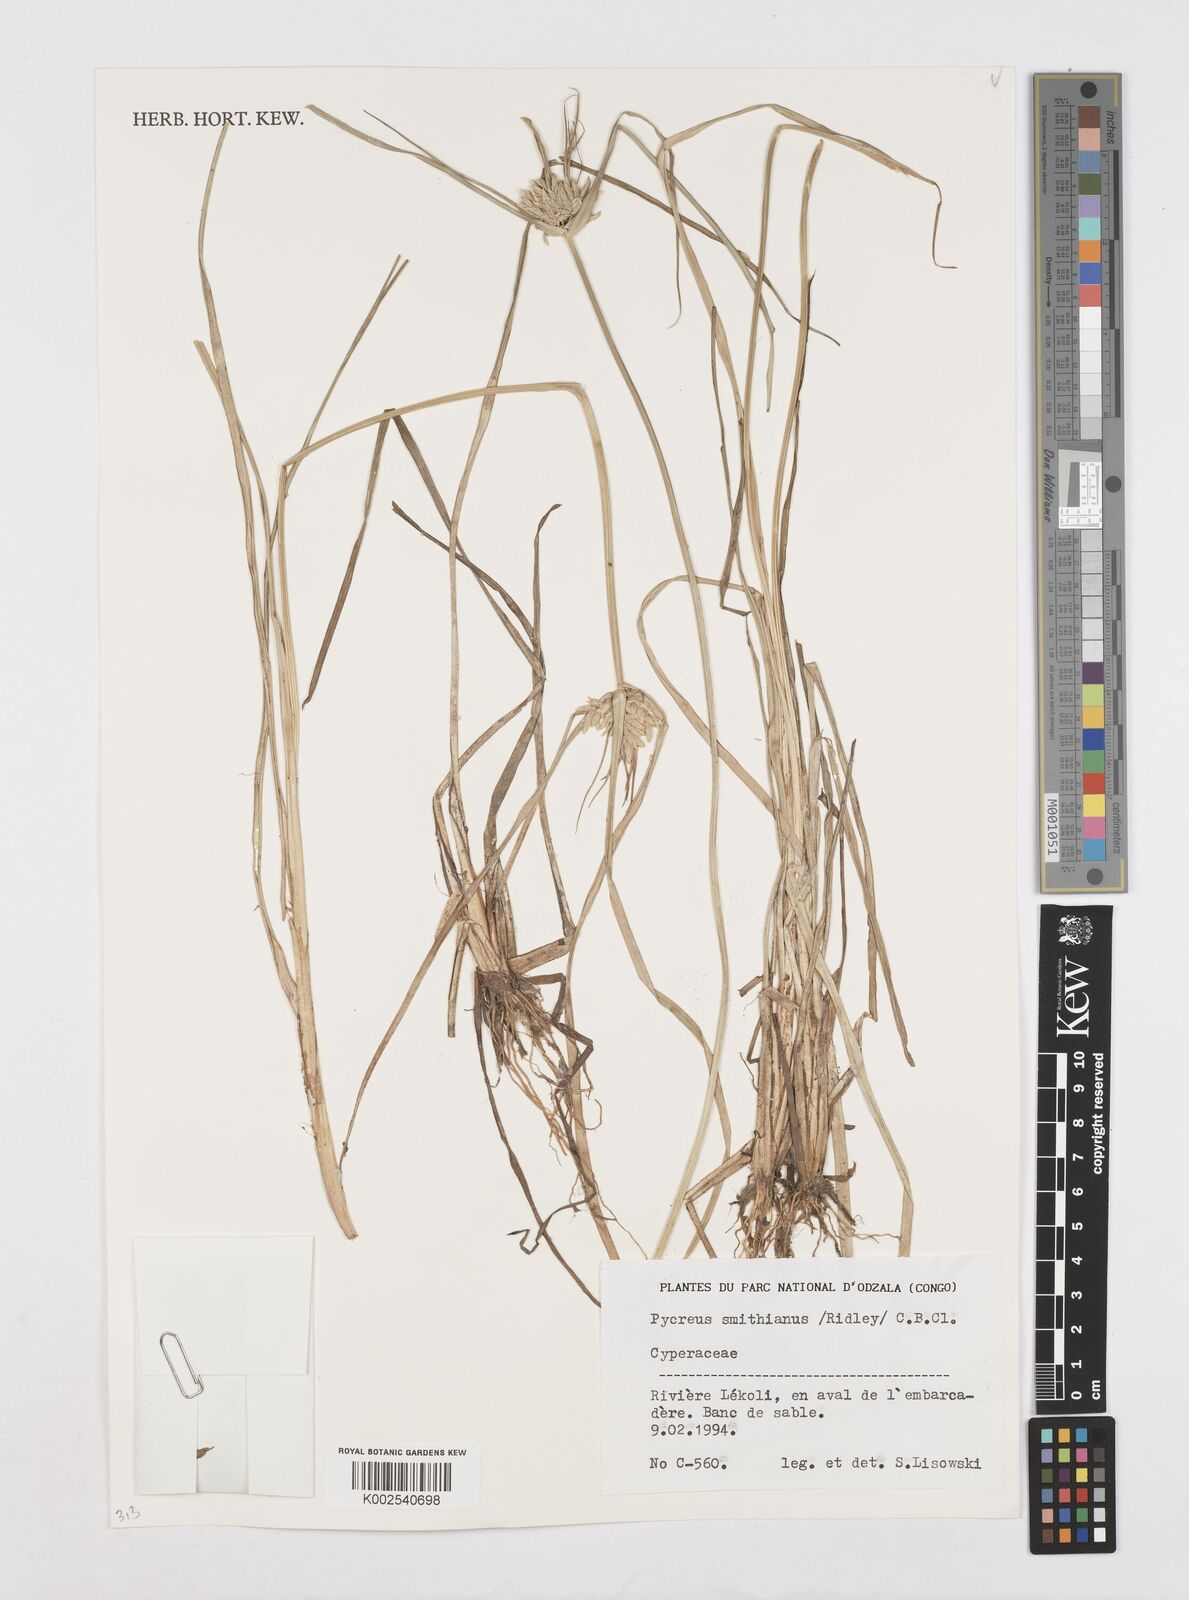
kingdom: Plantae
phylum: Tracheophyta
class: Liliopsida
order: Poales
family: Cyperaceae
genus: Cyperus
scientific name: Cyperus smithianus
